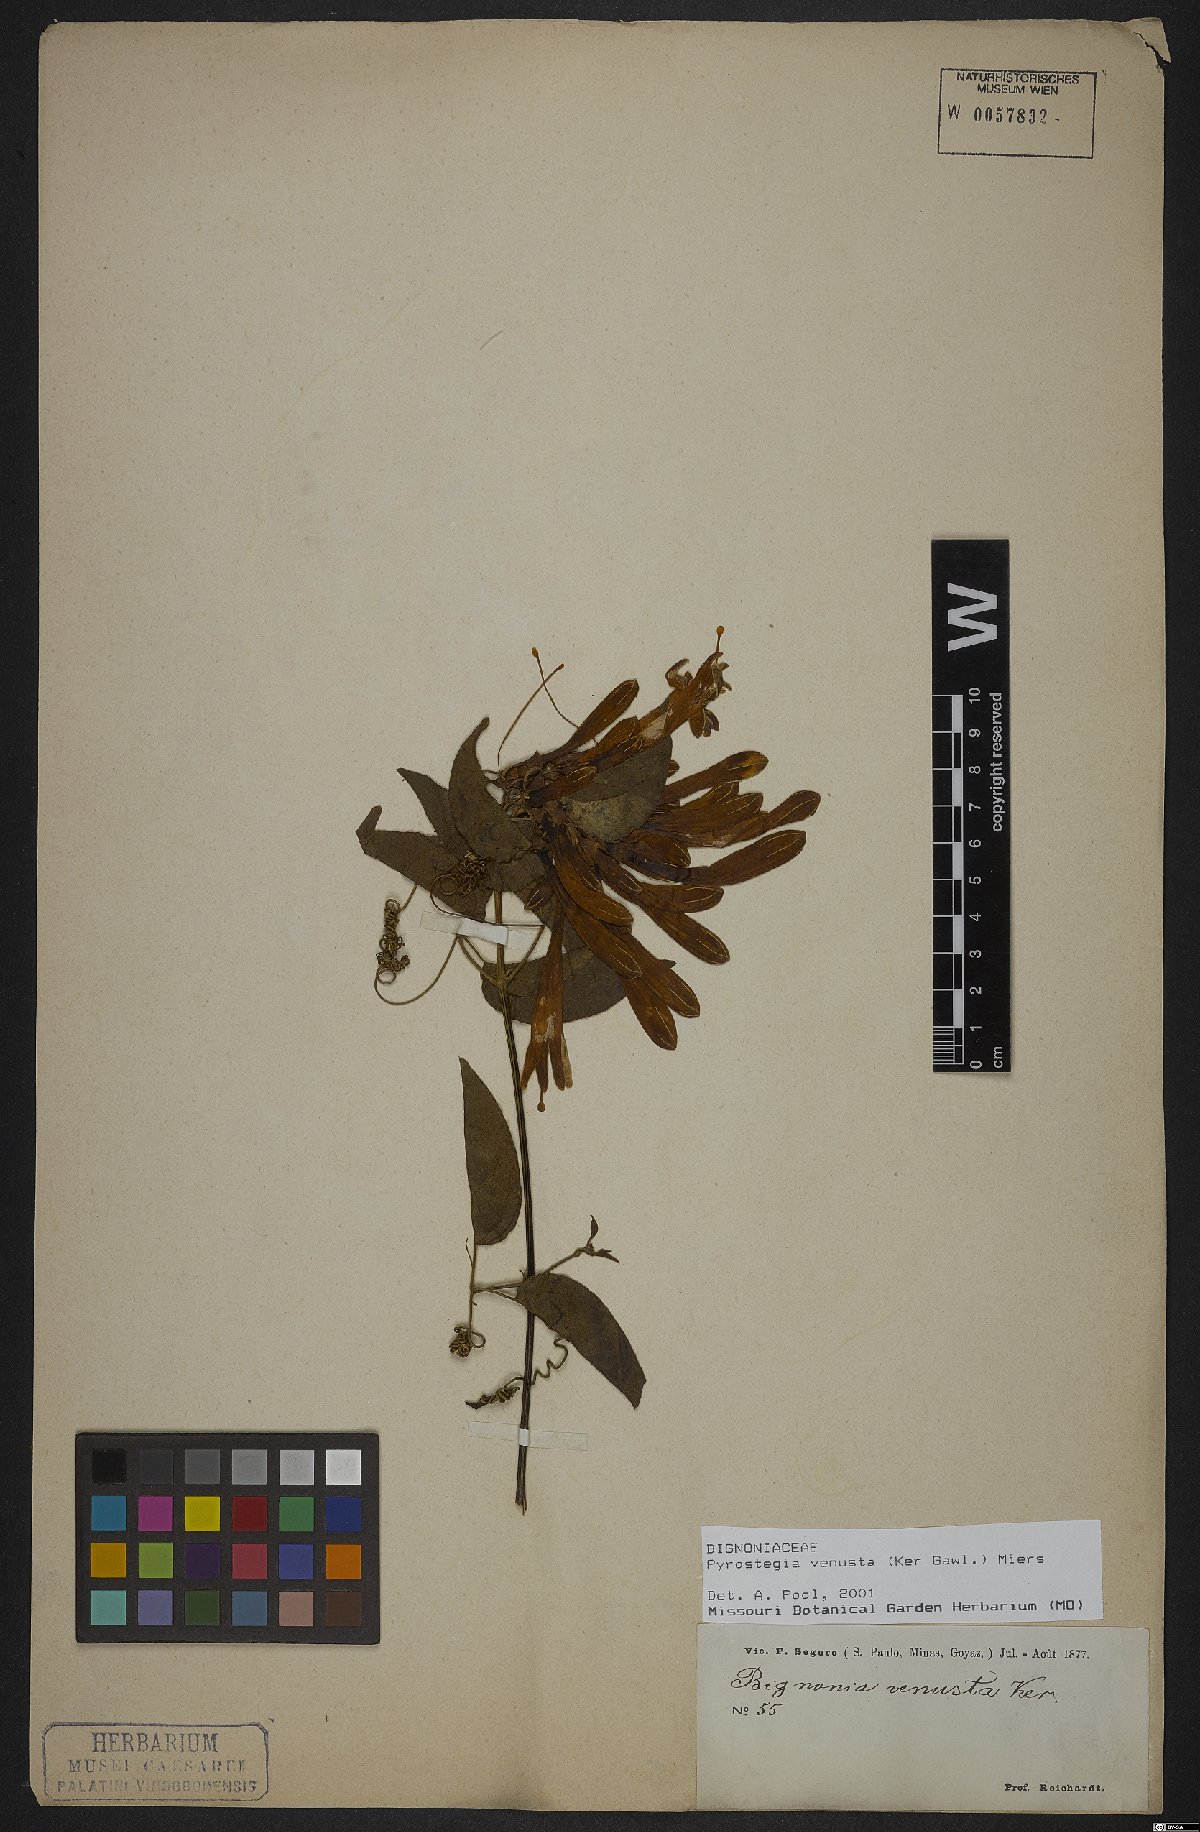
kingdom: Plantae
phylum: Tracheophyta
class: Magnoliopsida
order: Lamiales
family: Bignoniaceae
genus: Pyrostegia
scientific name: Pyrostegia venusta
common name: Flamevine
